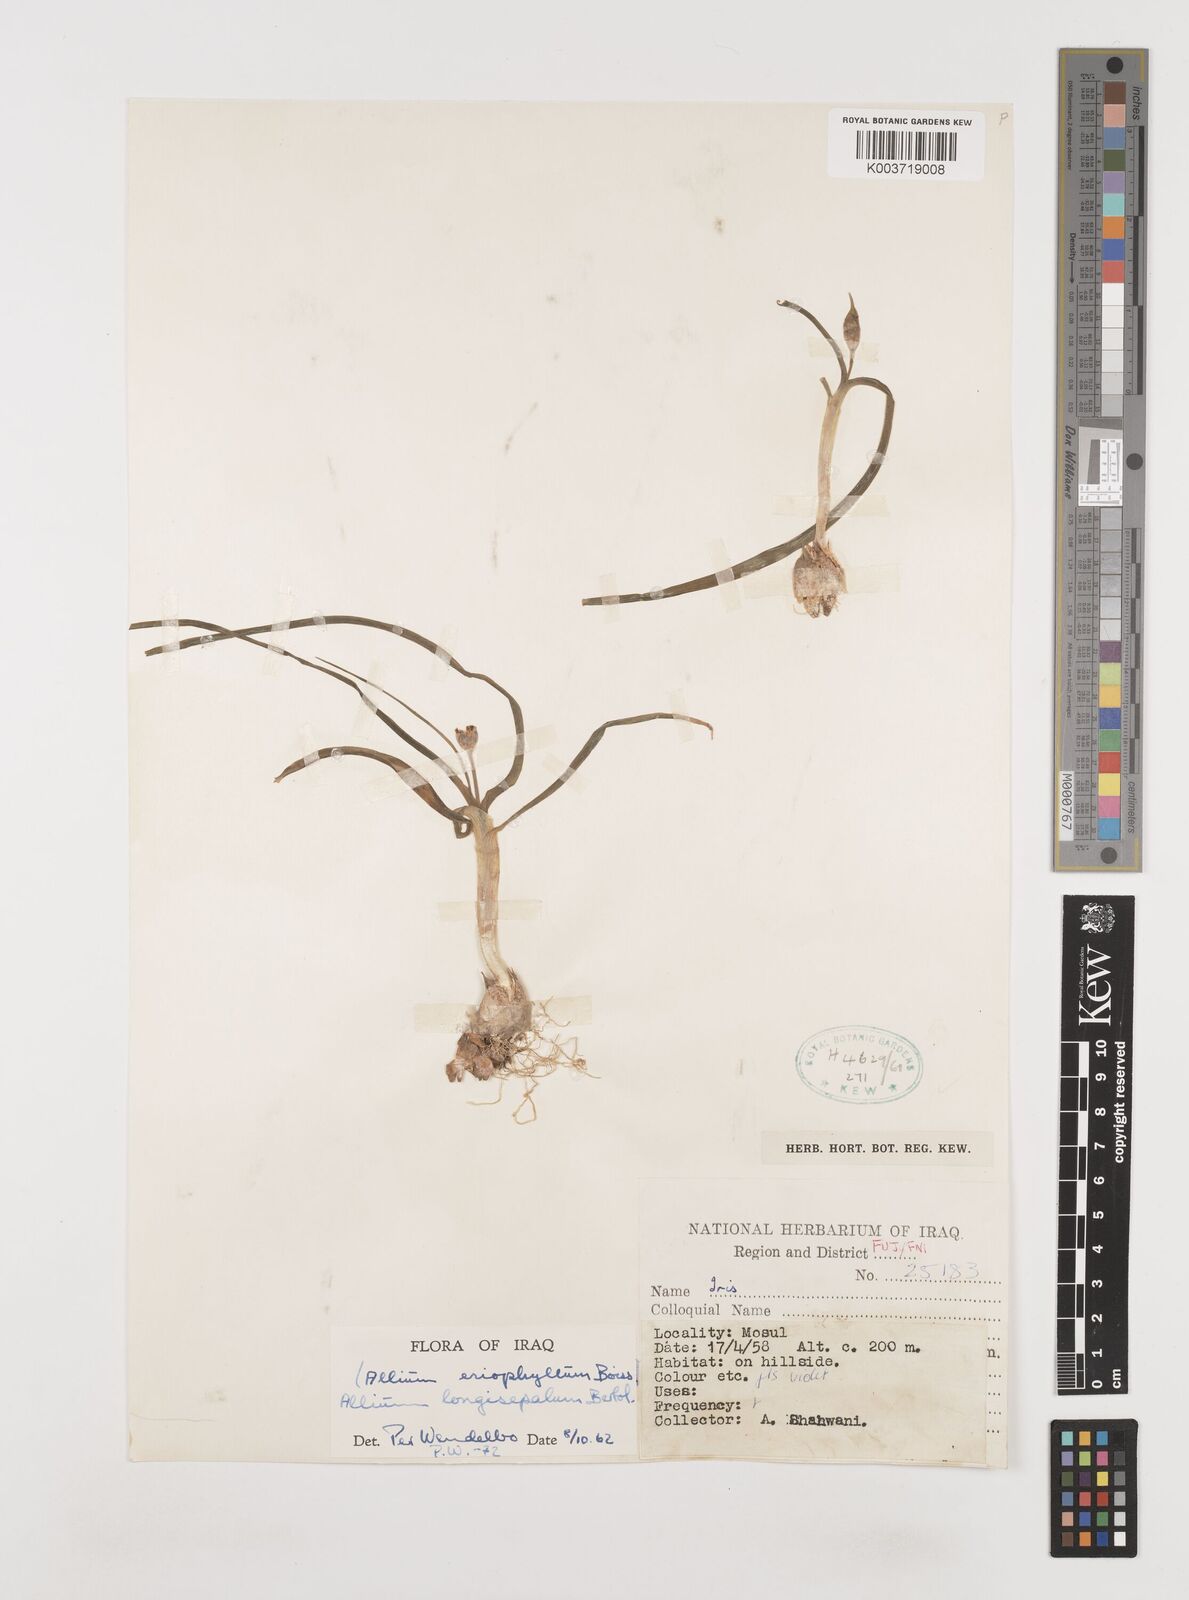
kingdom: Plantae
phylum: Tracheophyta
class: Liliopsida
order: Asparagales
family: Amaryllidaceae
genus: Allium
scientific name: Allium longisepalum
